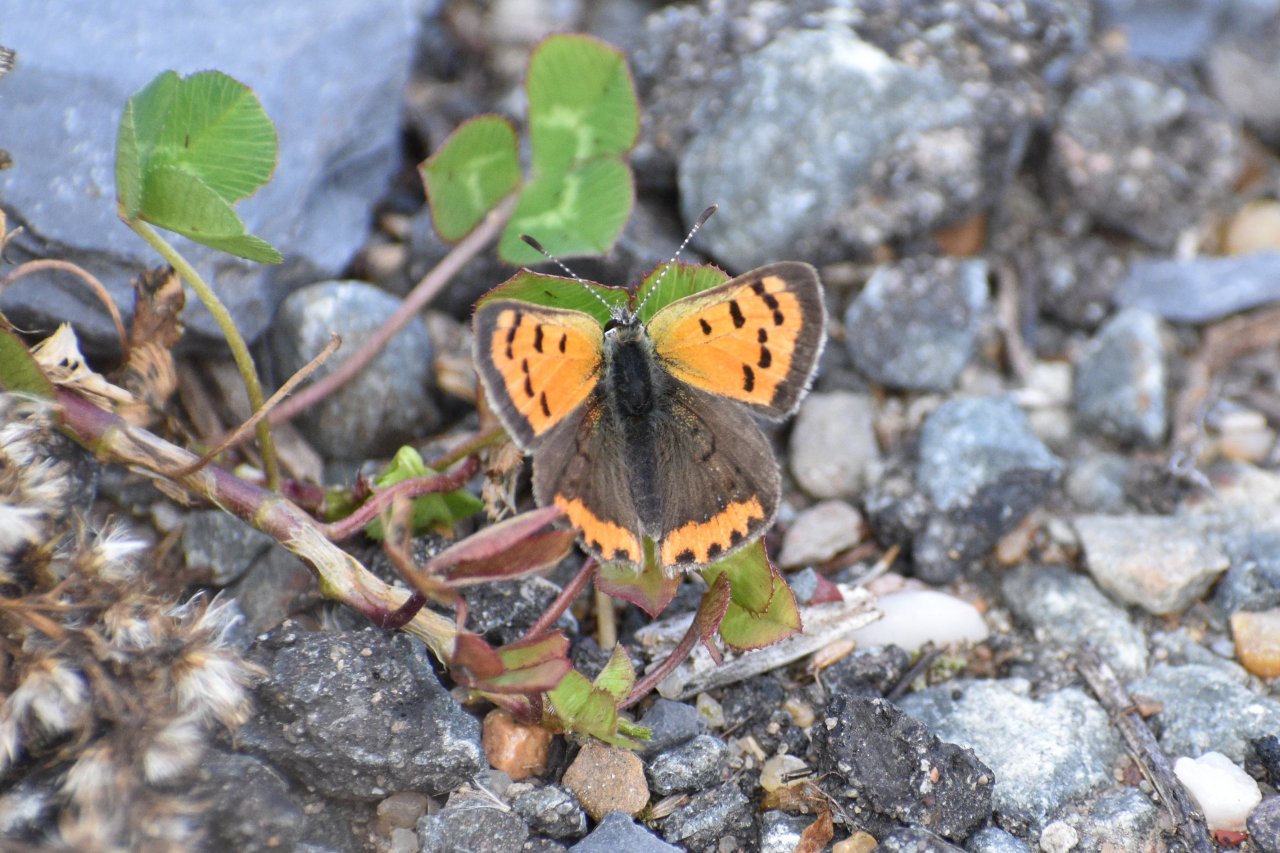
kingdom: Animalia
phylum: Arthropoda
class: Insecta
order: Lepidoptera
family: Lycaenidae
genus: Lycaena
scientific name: Lycaena phlaeas
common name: American Copper
